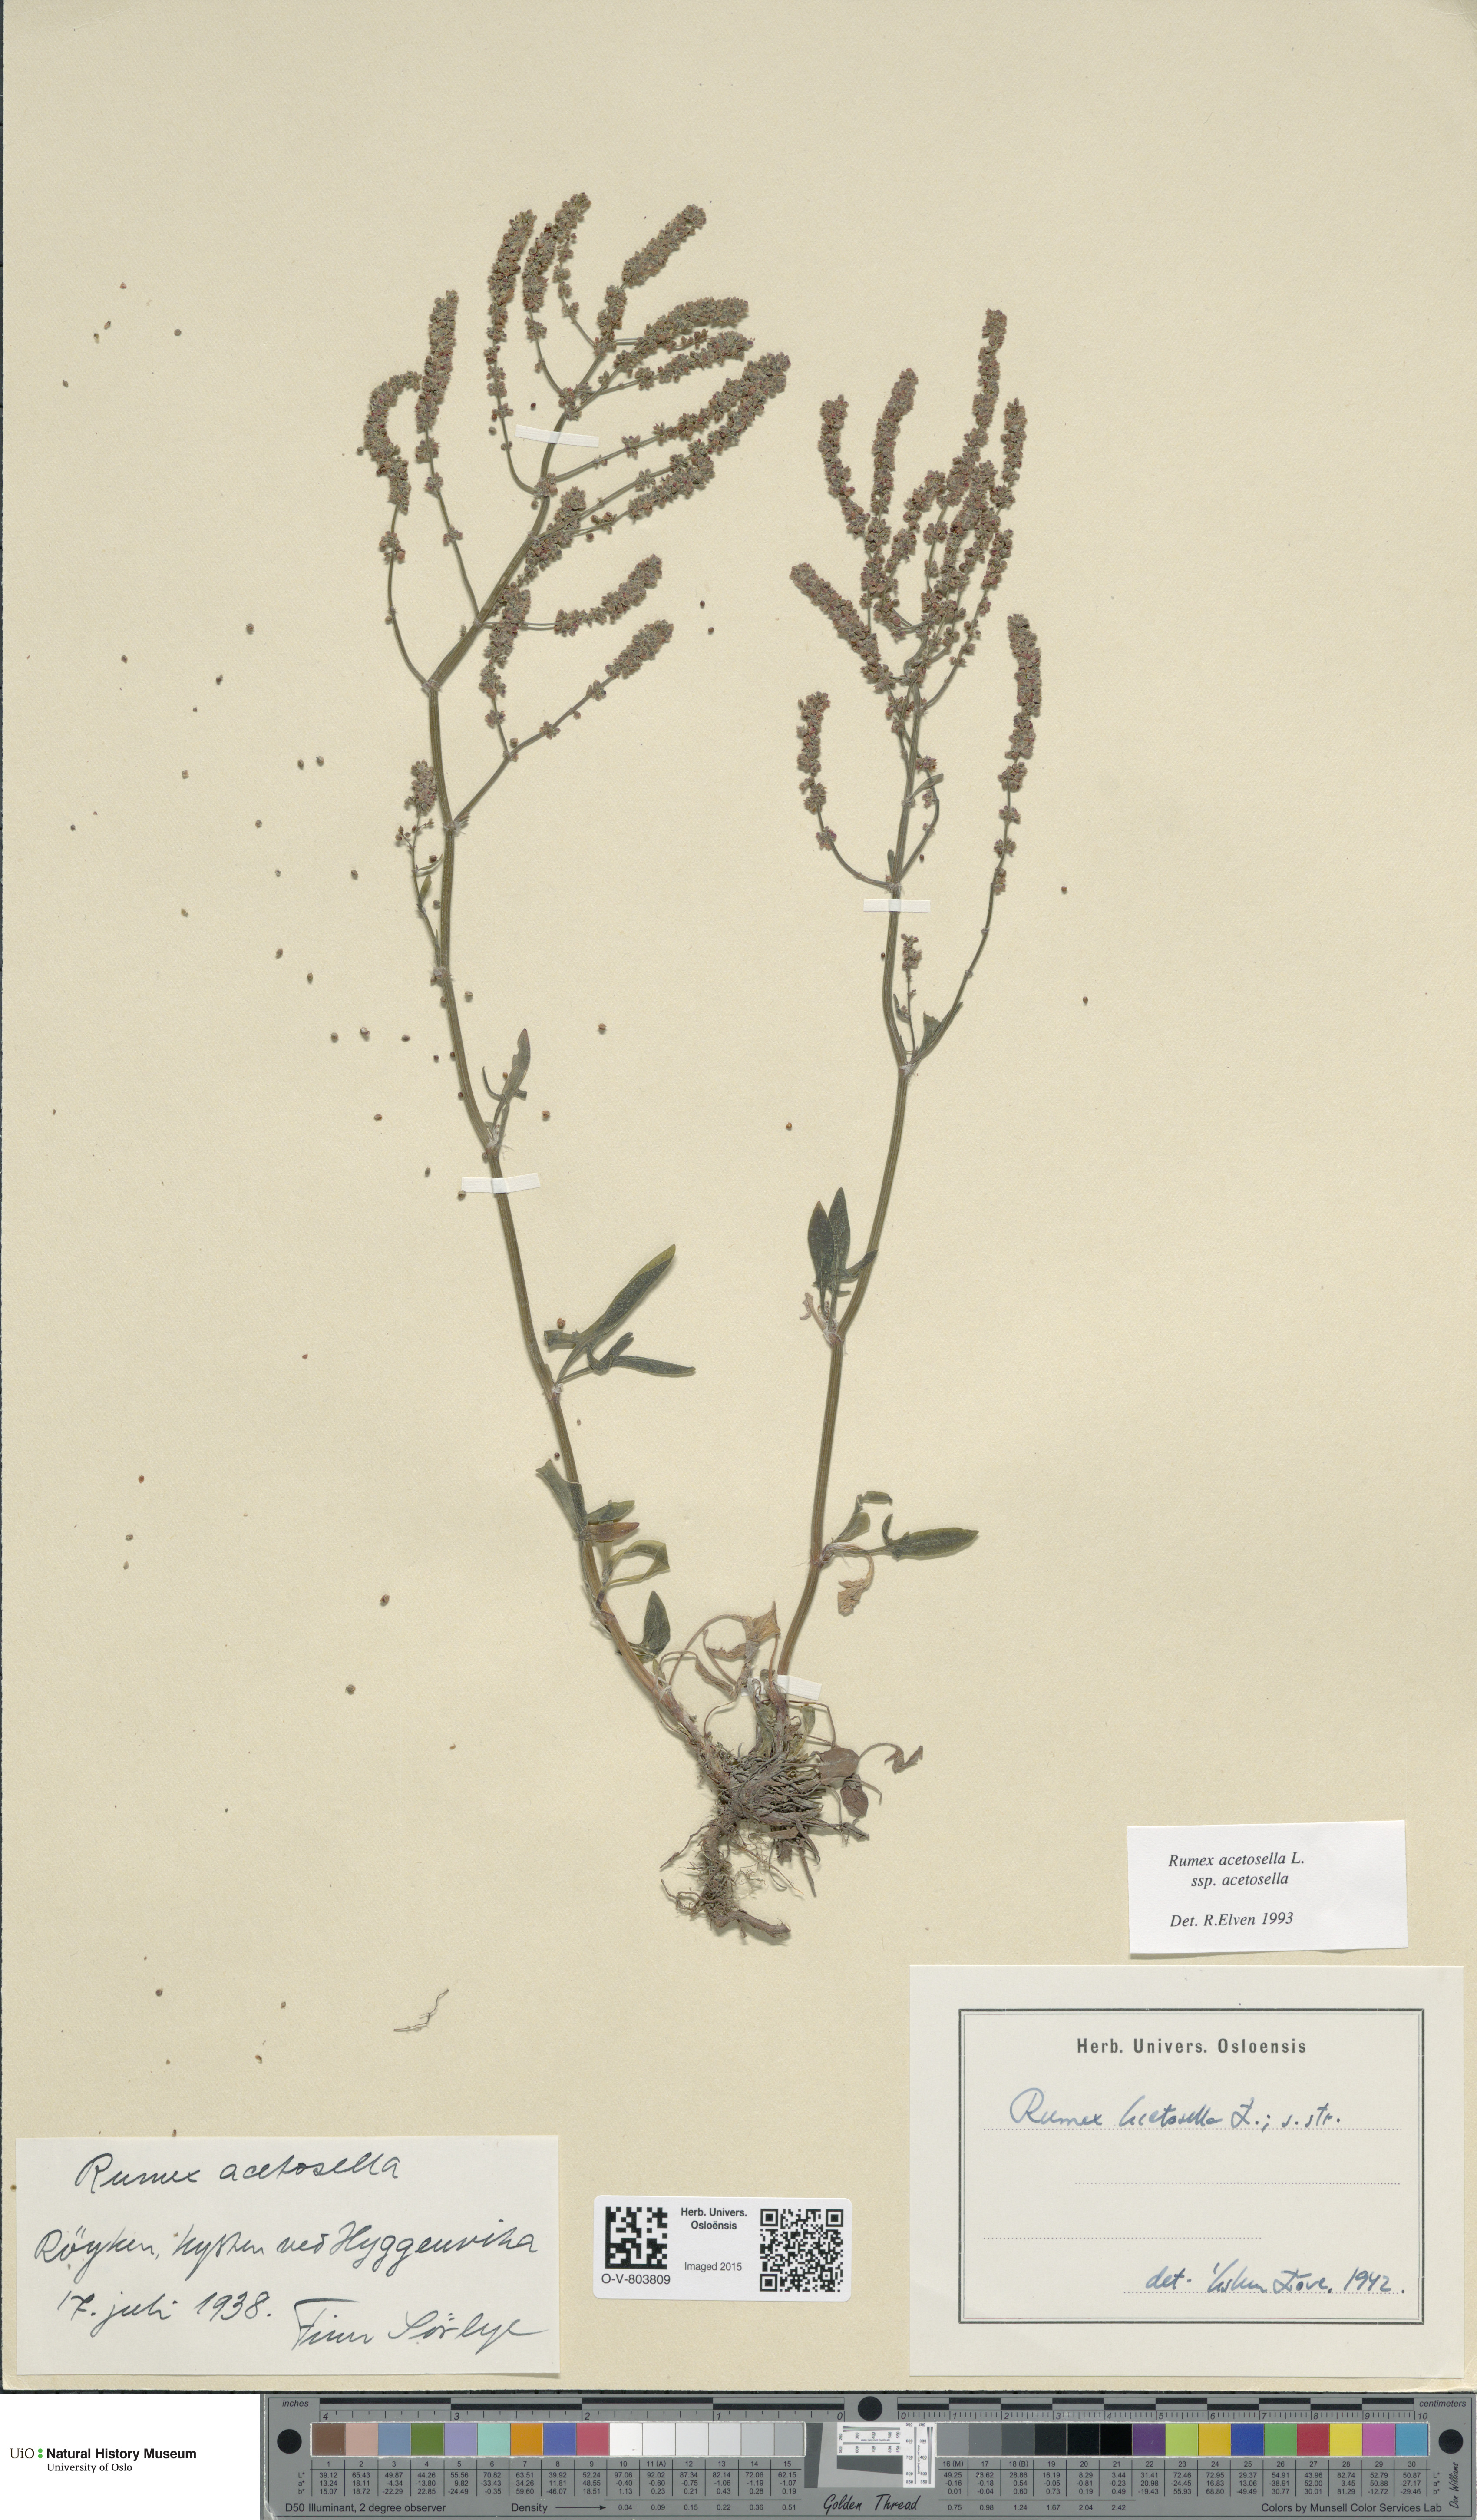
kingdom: Plantae
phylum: Tracheophyta
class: Magnoliopsida
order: Caryophyllales
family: Polygonaceae
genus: Rumex
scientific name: Rumex acetosella
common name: Common sheep sorrel
